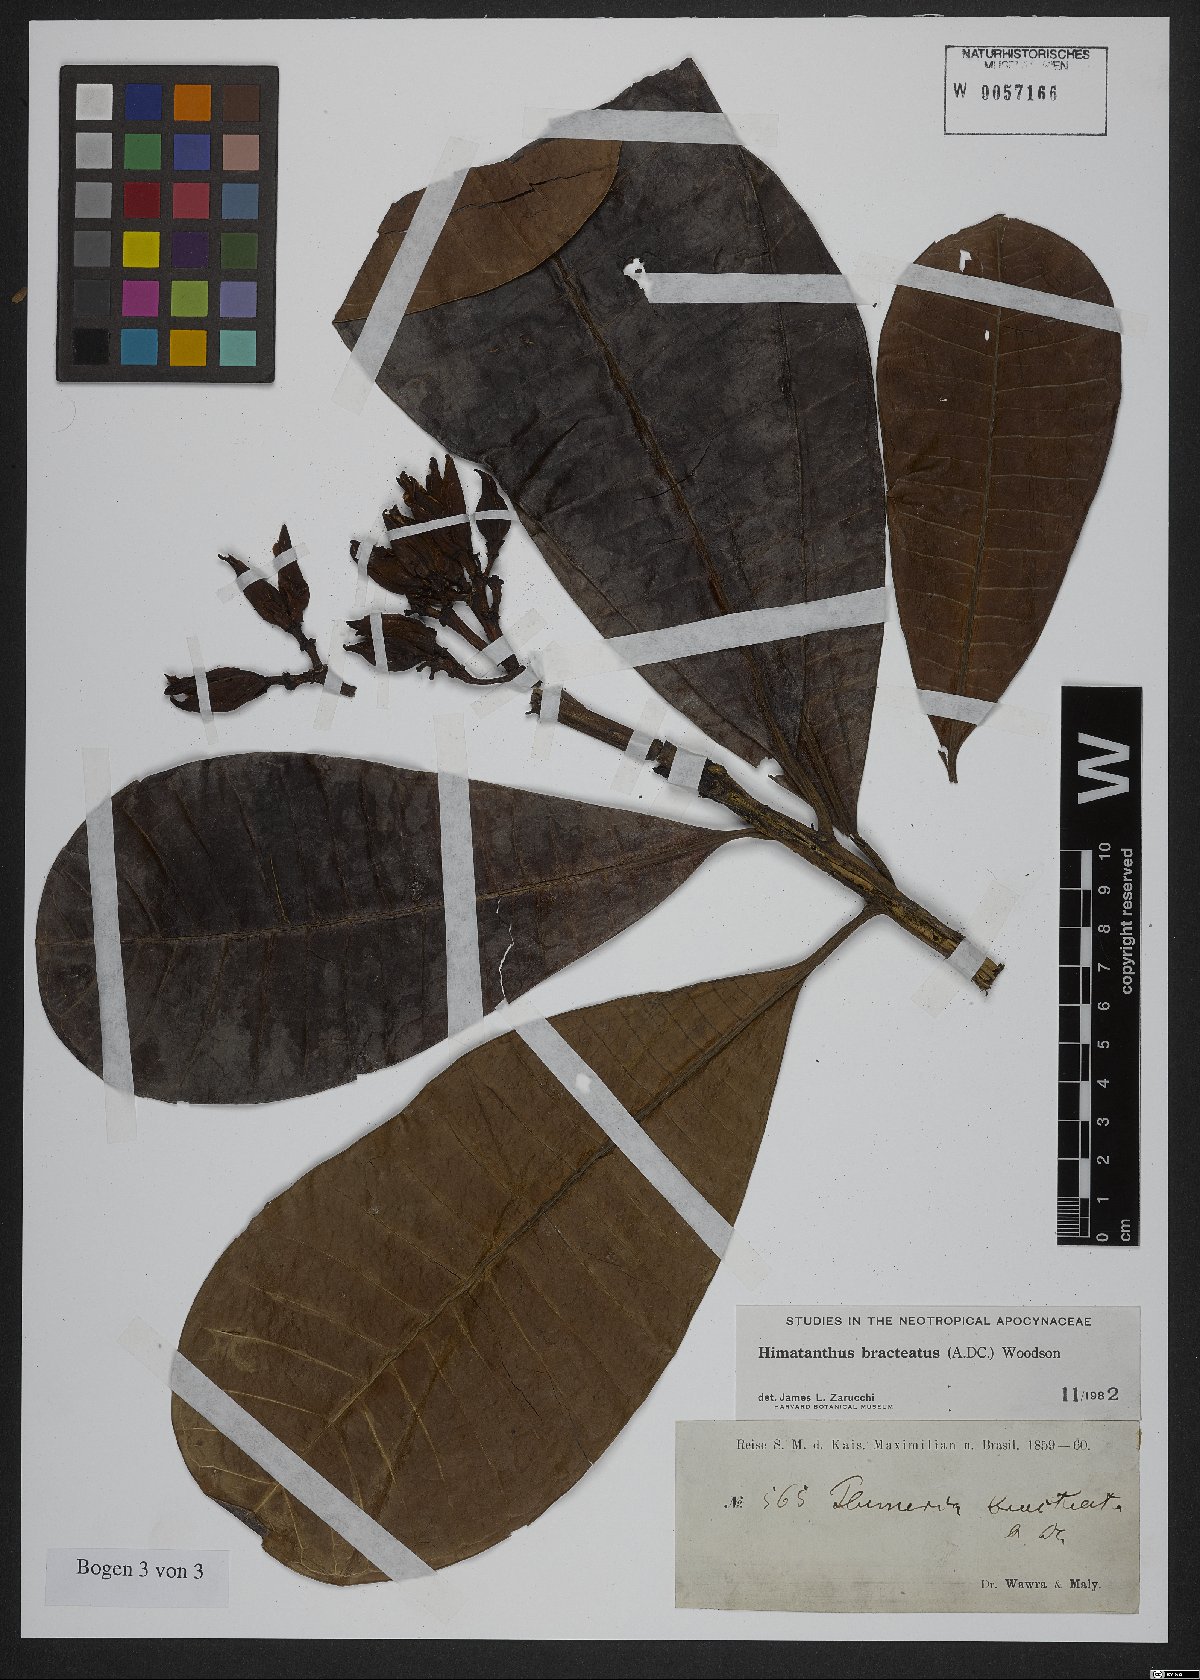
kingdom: Plantae
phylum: Tracheophyta
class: Magnoliopsida
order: Gentianales
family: Apocynaceae
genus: Himatanthus
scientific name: Himatanthus bracteatus
